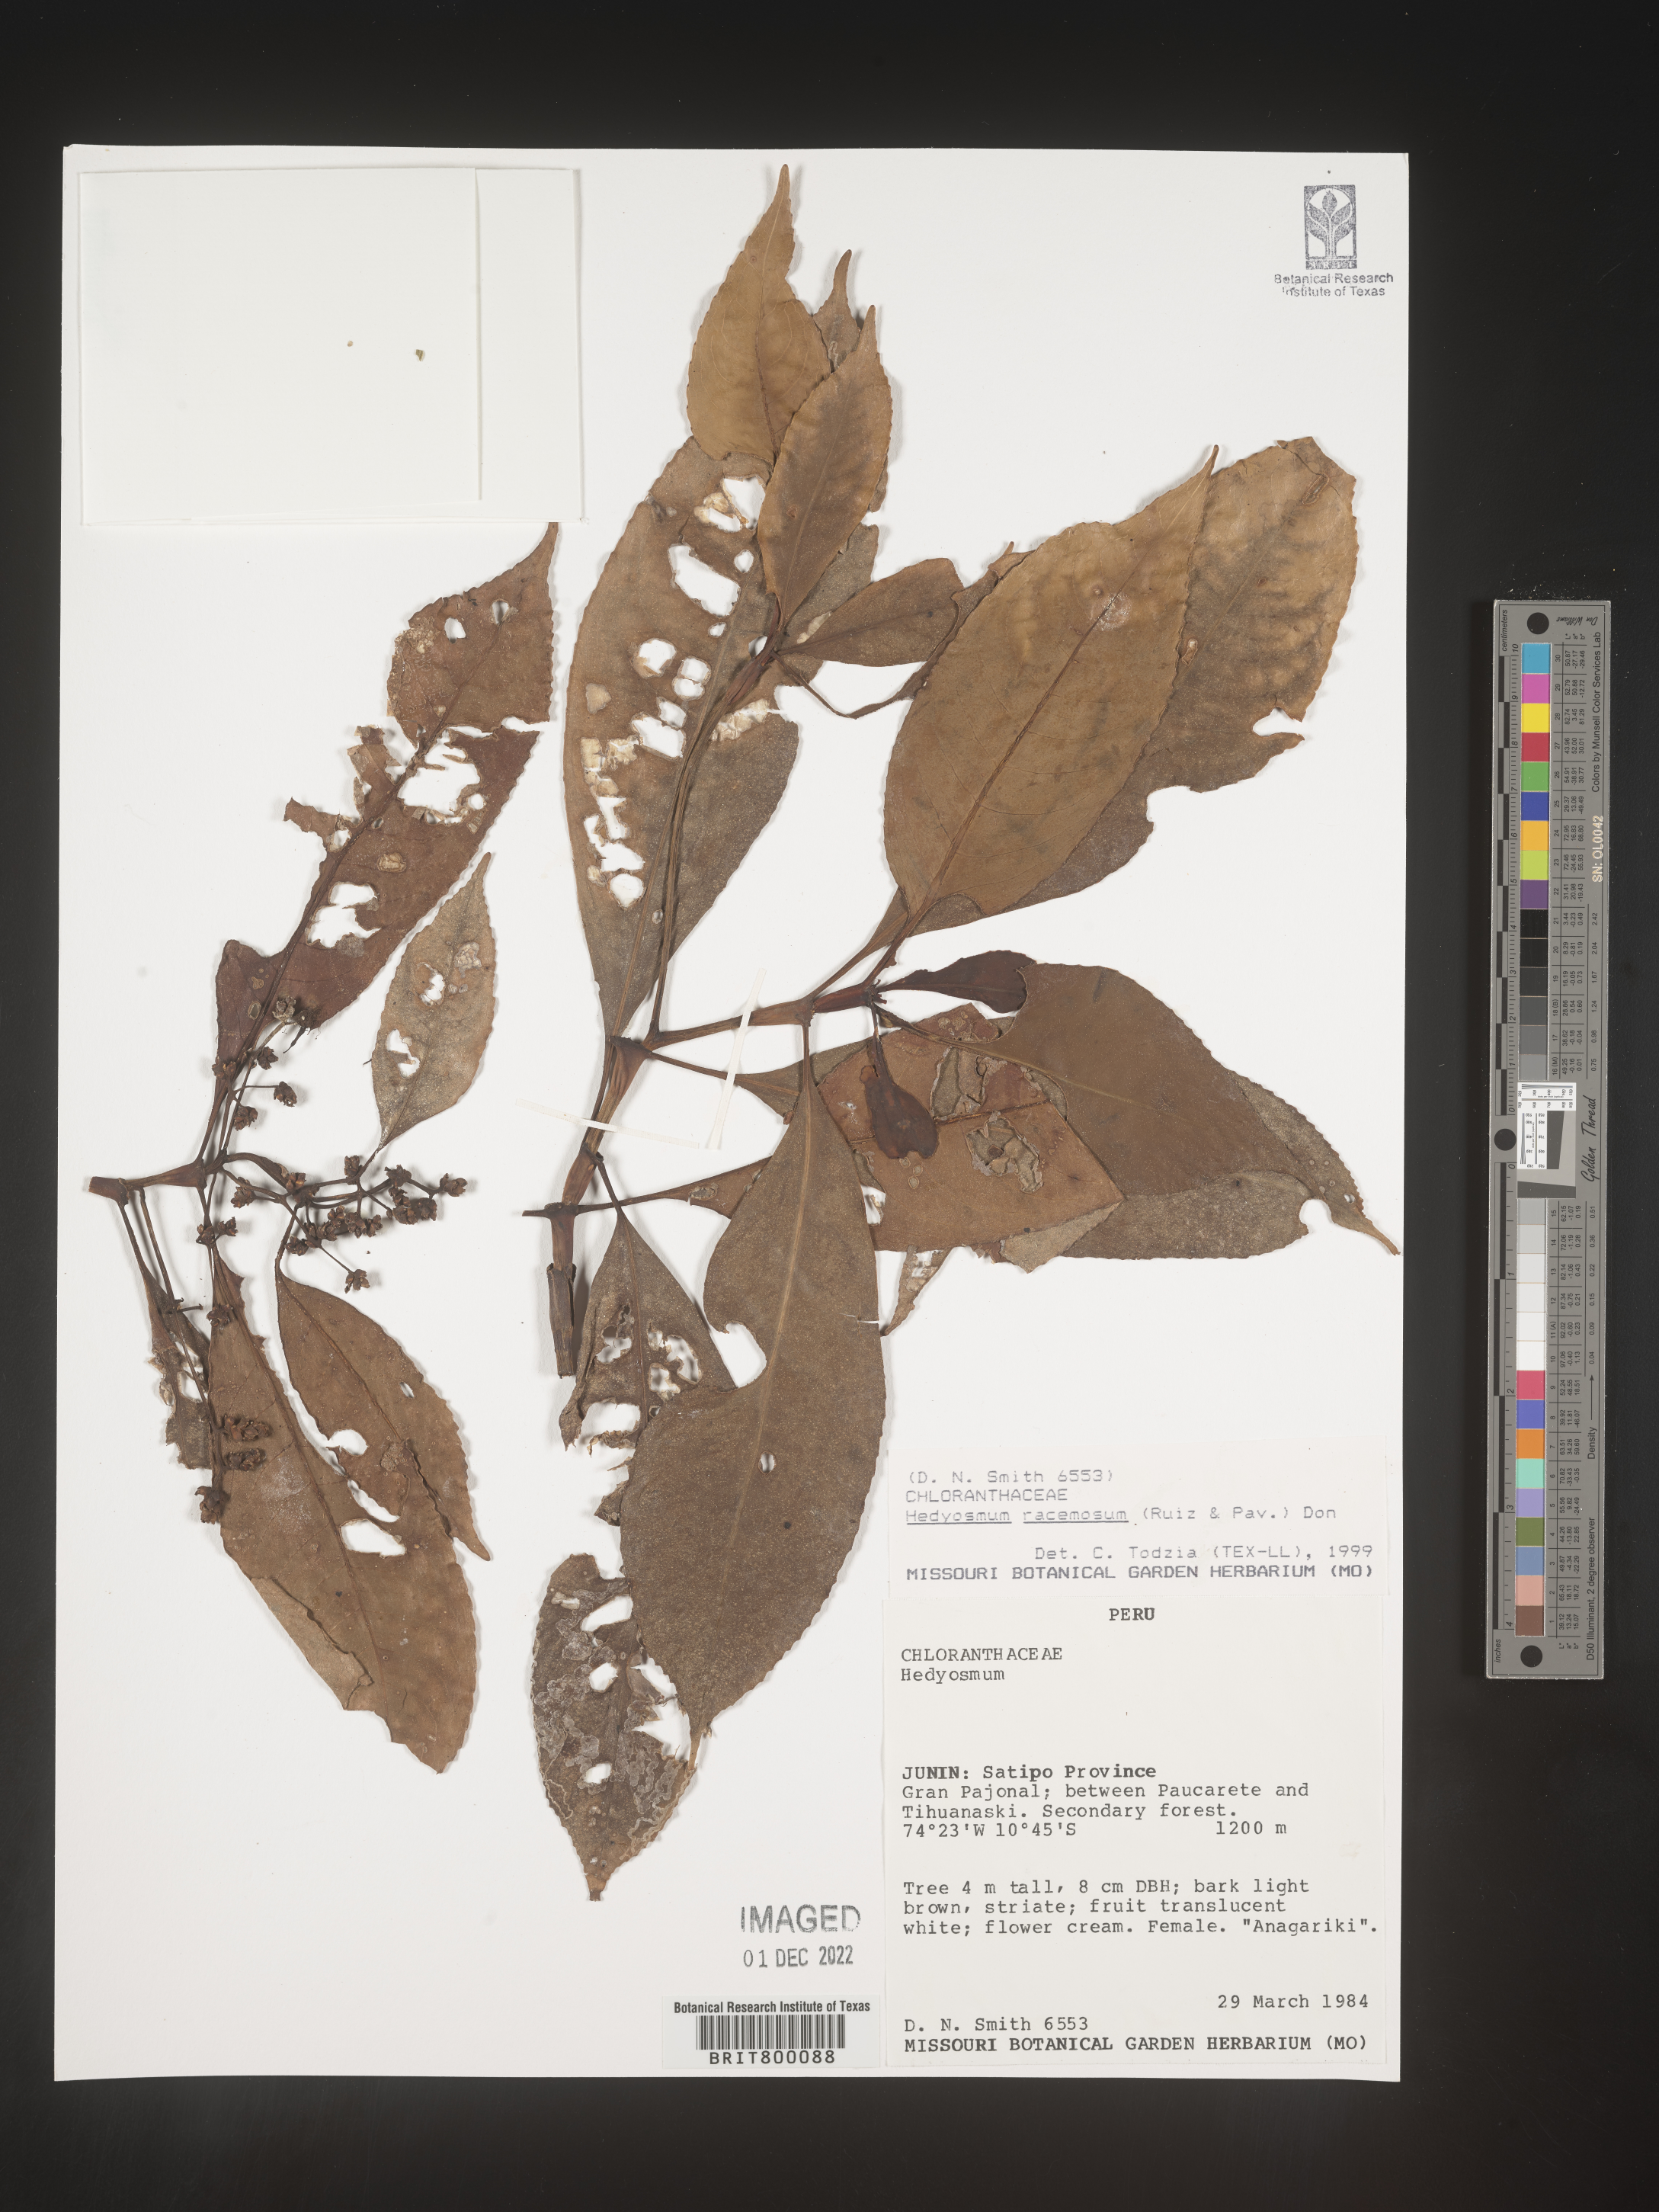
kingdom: Plantae
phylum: Tracheophyta
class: Magnoliopsida
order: Chloranthales
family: Chloranthaceae
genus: Hedyosmum
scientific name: Hedyosmum
